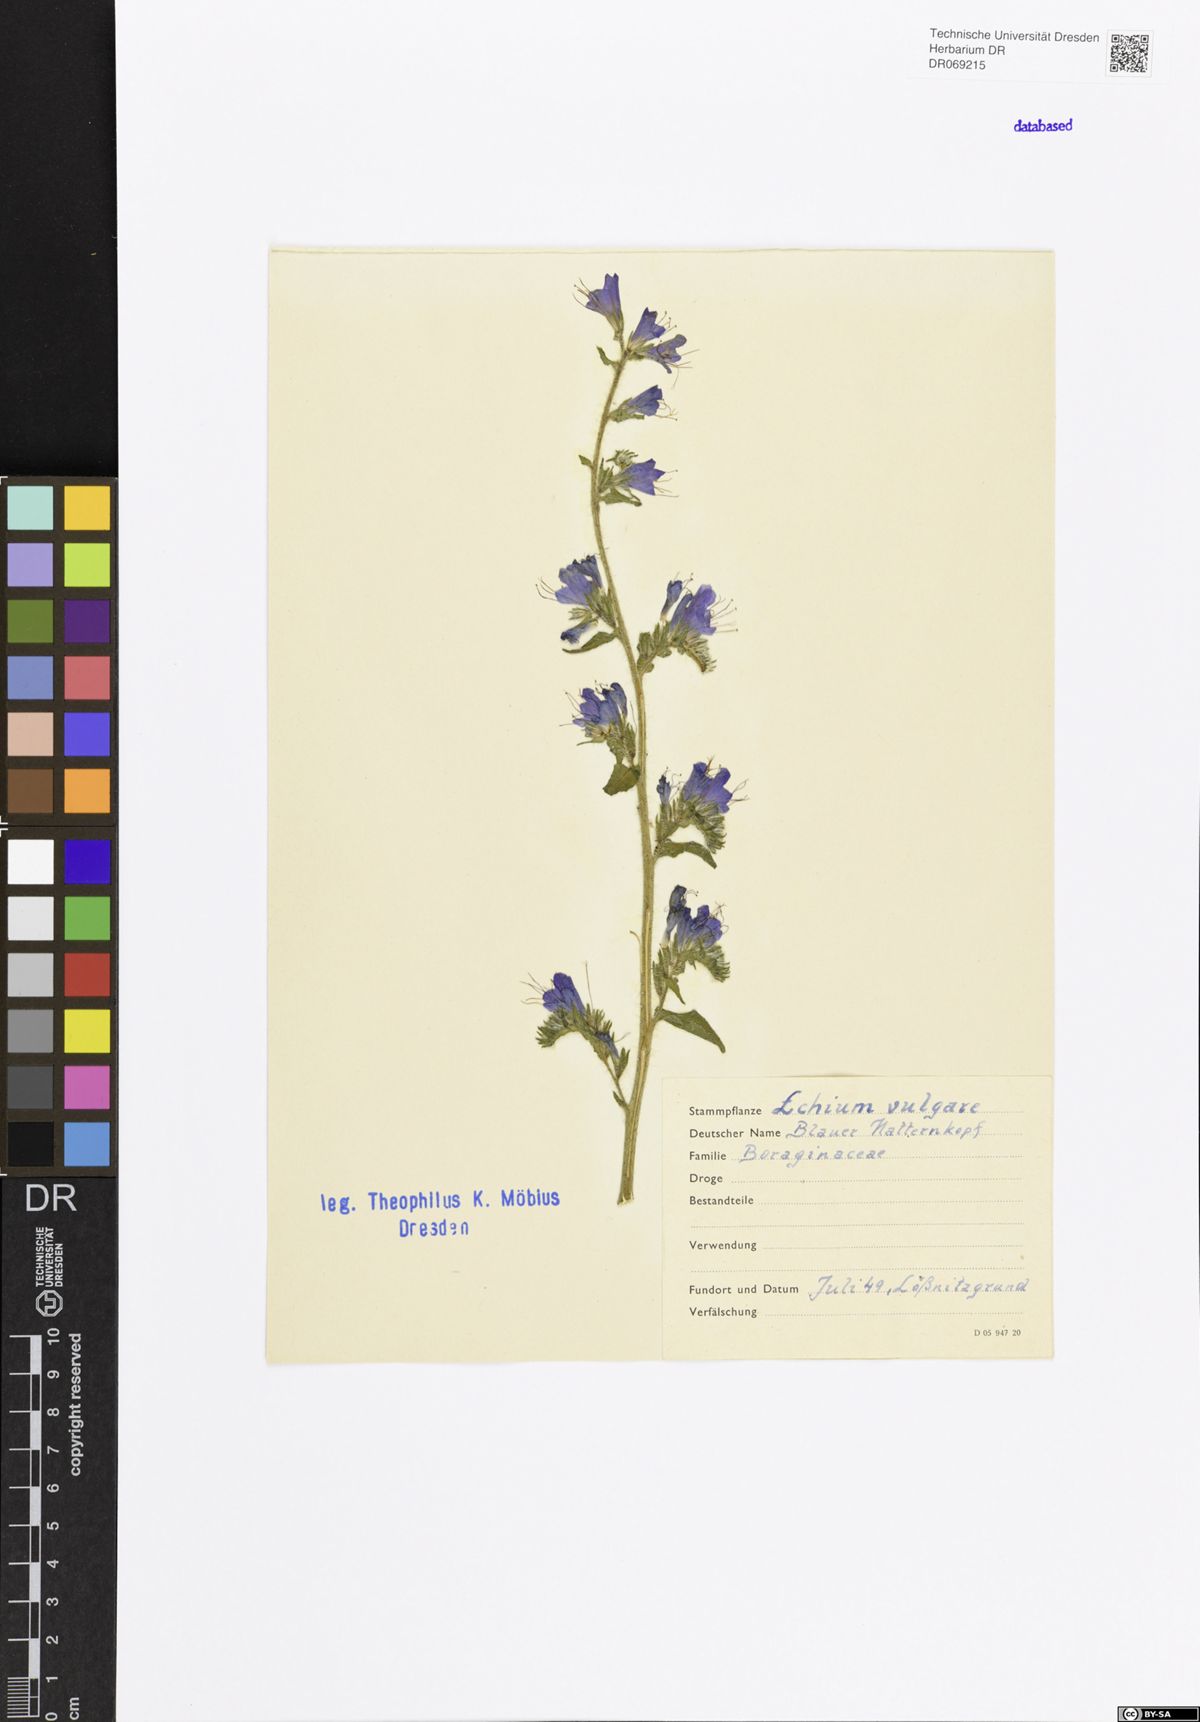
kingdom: Plantae
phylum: Tracheophyta
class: Magnoliopsida
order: Boraginales
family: Boraginaceae
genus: Echium
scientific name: Echium vulgare
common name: Common viper's bugloss
